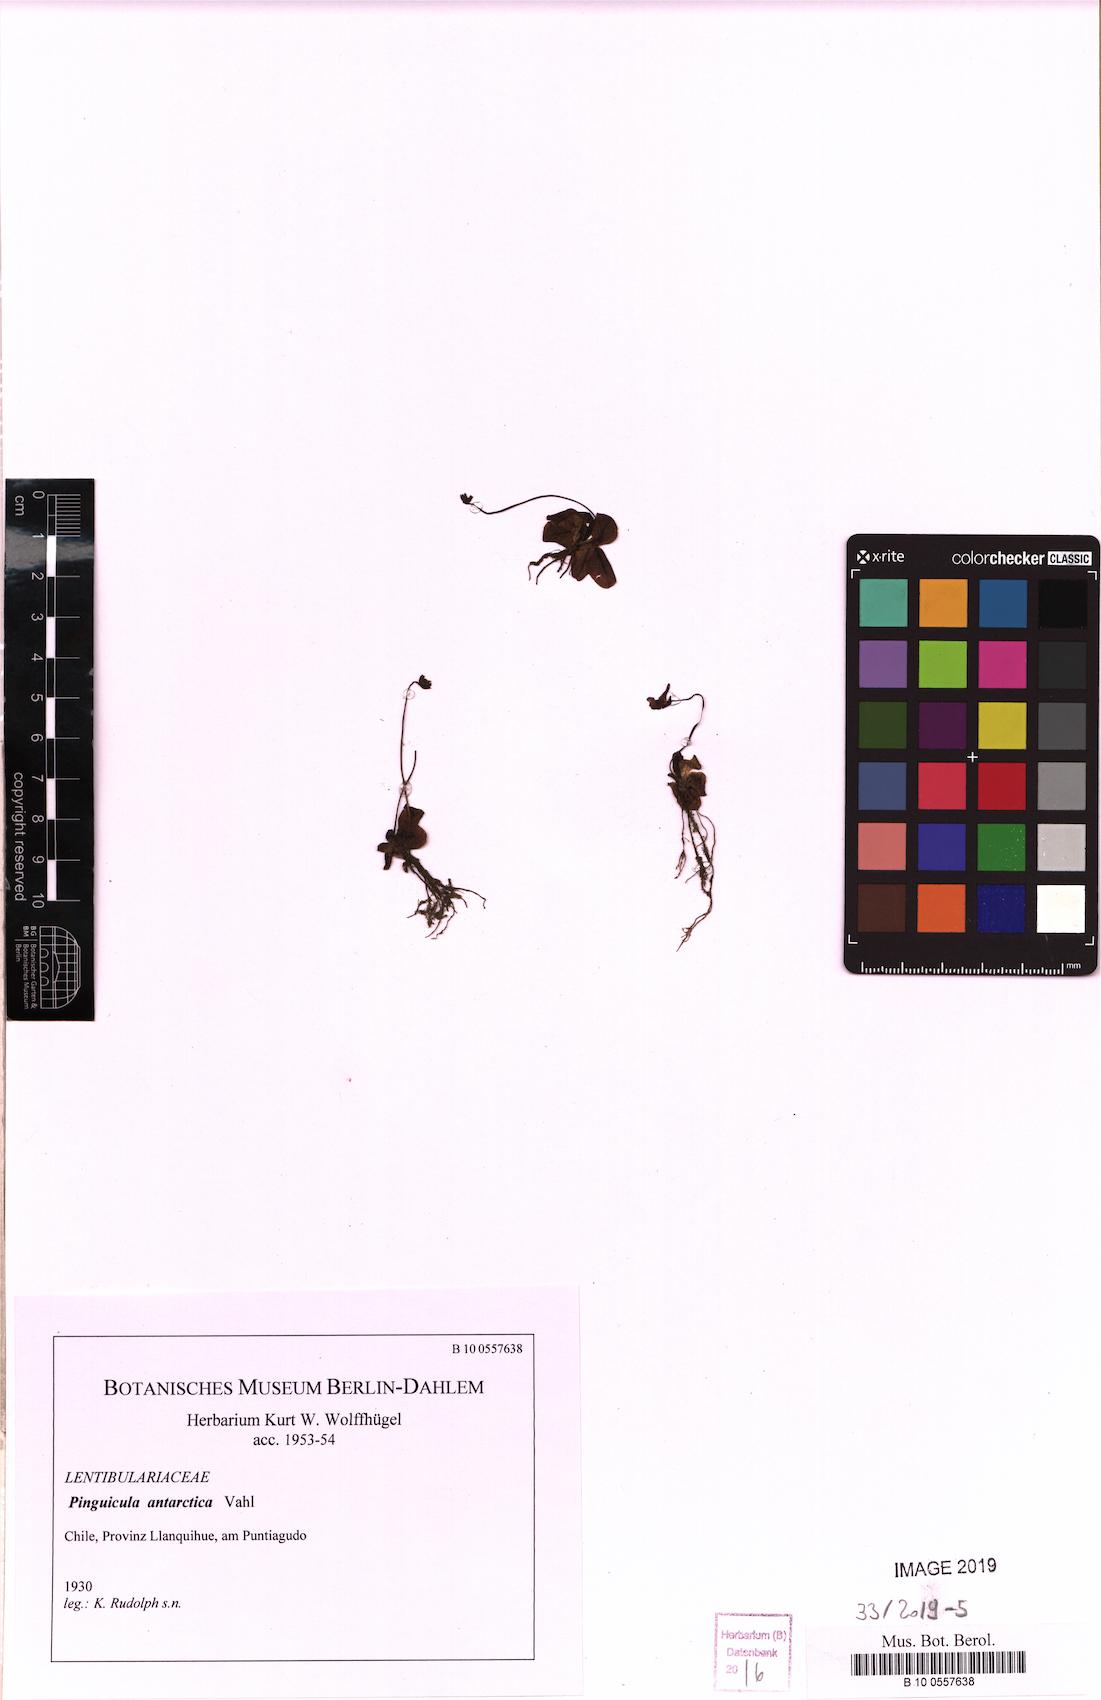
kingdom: Plantae
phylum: Tracheophyta
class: Magnoliopsida
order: Lamiales
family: Lentibulariaceae
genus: Pinguicula
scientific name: Pinguicula chilensis
